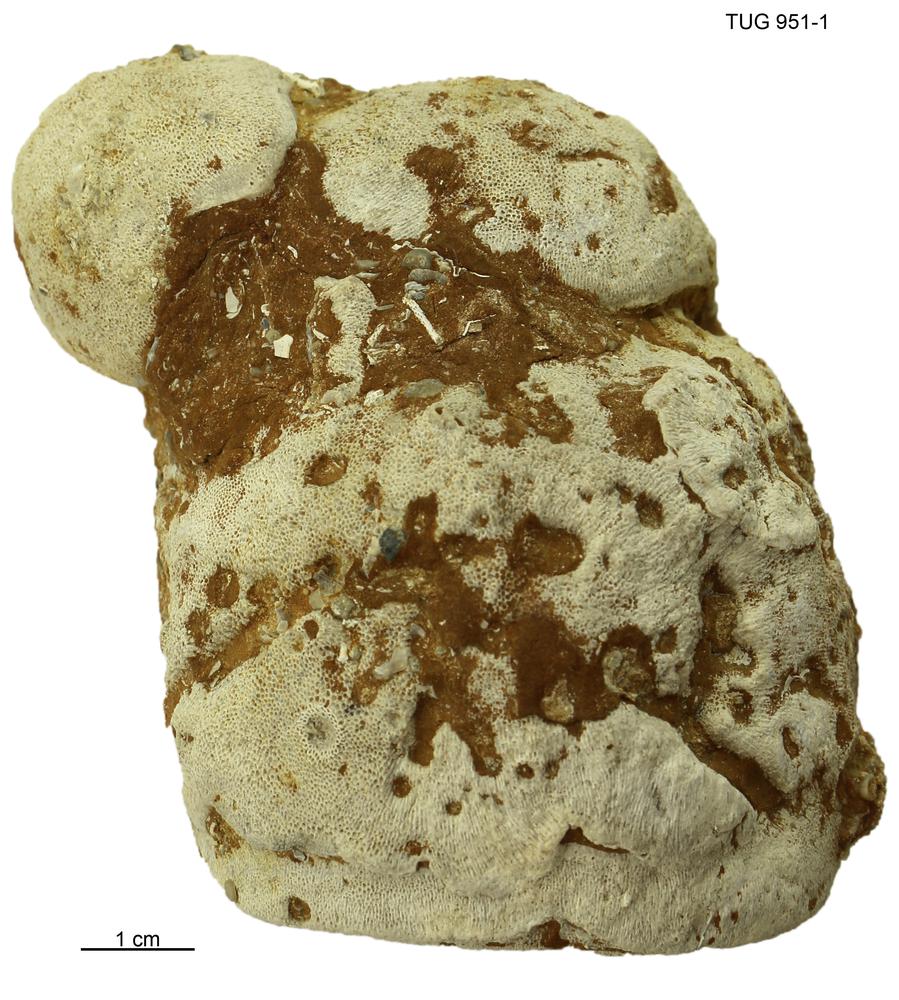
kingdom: Animalia
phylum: Bryozoa
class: Stenolaemata
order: Trepostomatida
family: Diplotrypidae
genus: Diplotrypa
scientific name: Diplotrypa petropolitana
